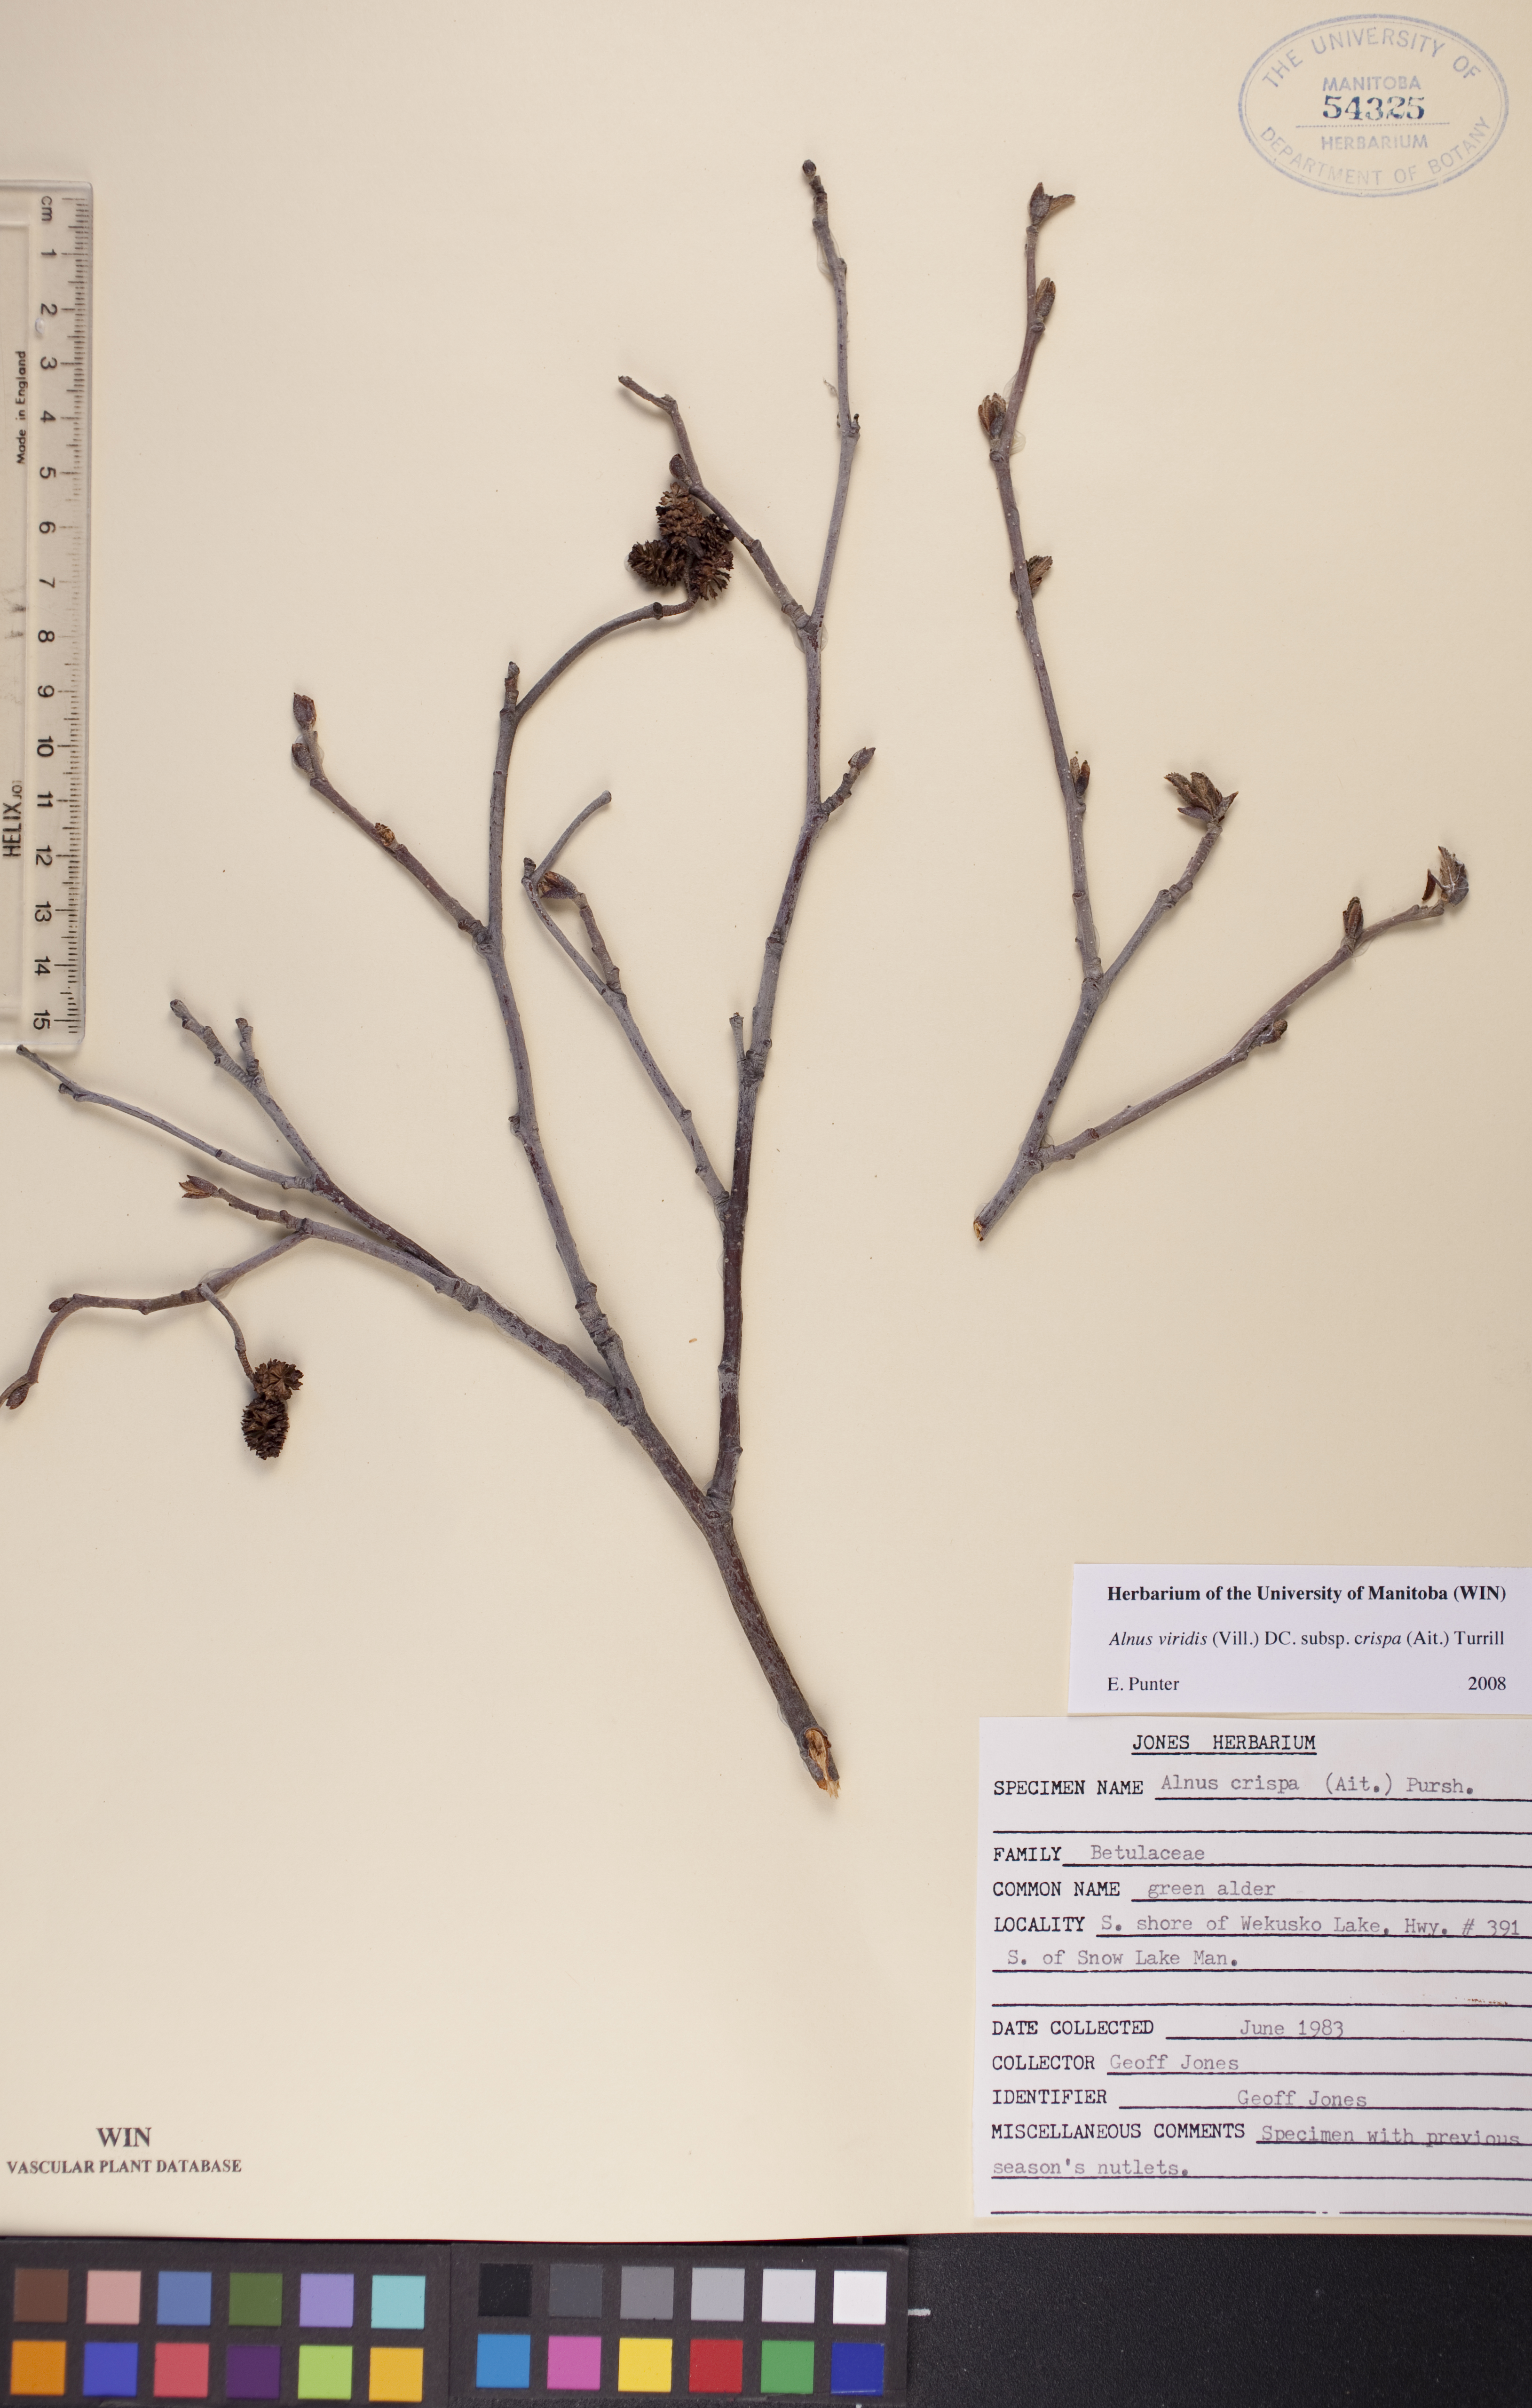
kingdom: Plantae
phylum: Tracheophyta
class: Magnoliopsida
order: Fagales
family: Betulaceae
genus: Alnus
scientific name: Alnus alnobetula
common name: Green alder
